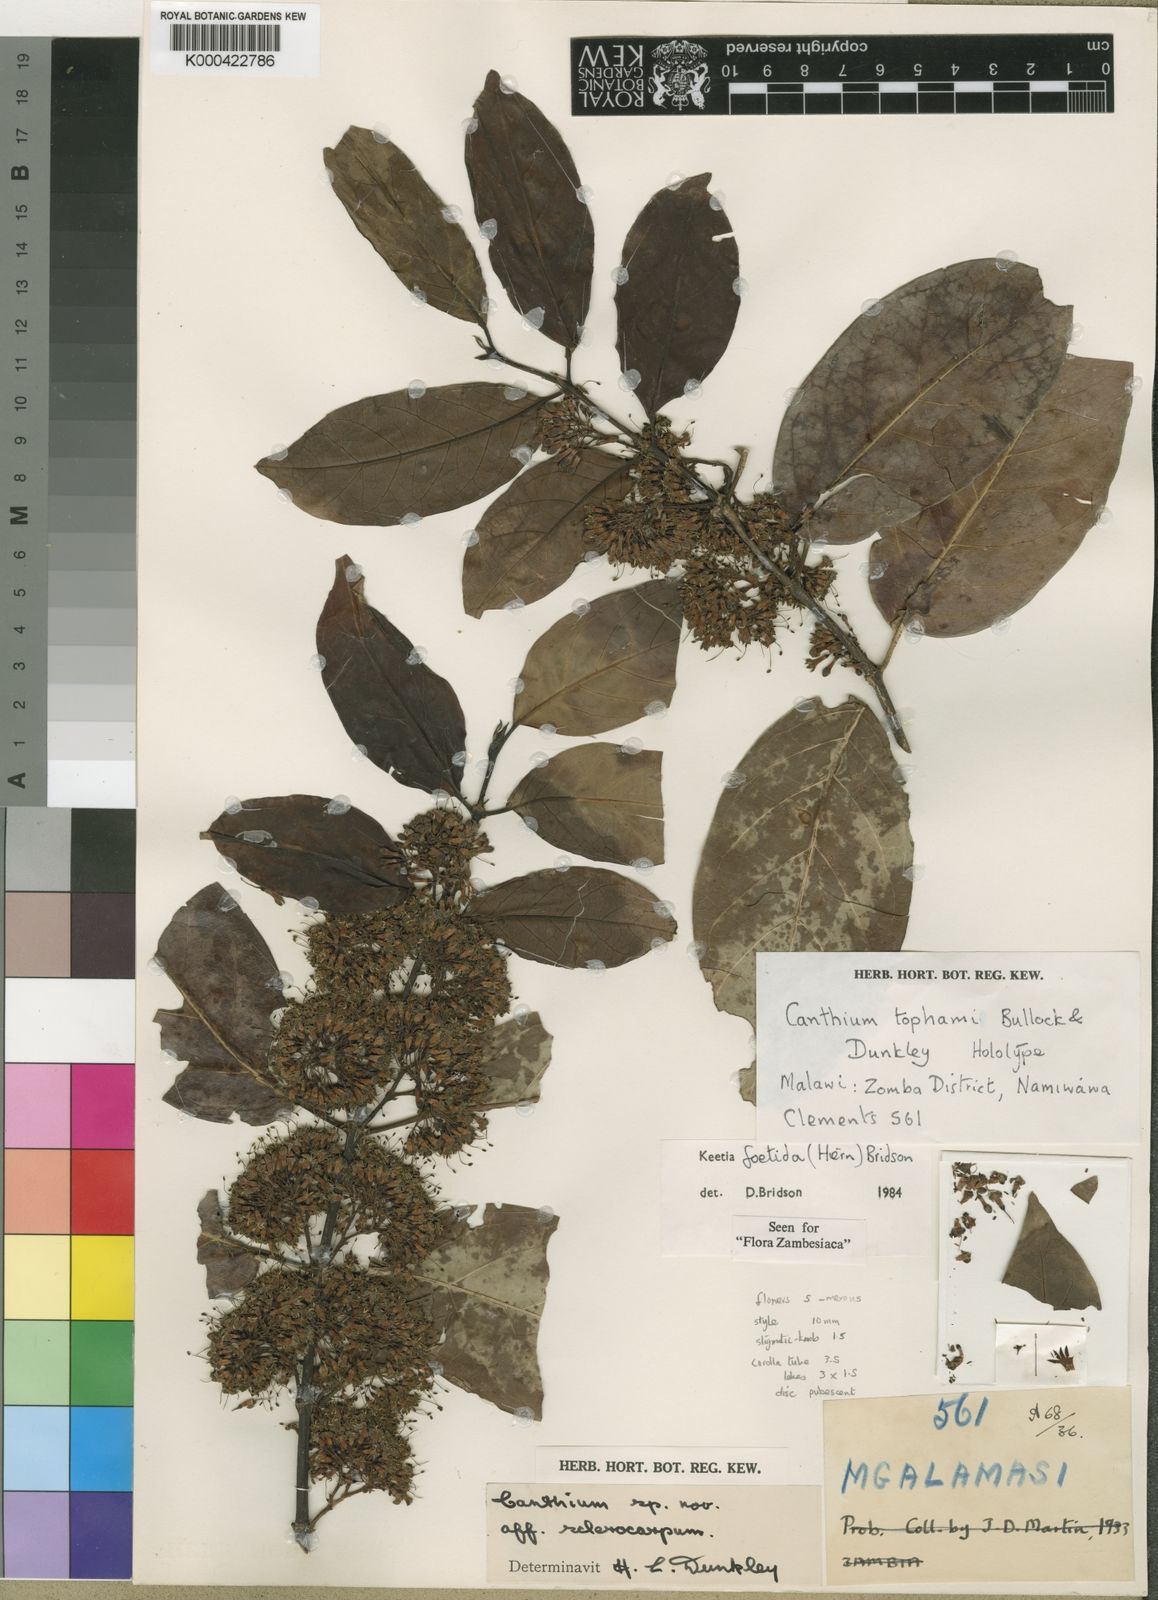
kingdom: Plantae
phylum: Tracheophyta
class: Magnoliopsida
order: Gentianales
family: Rubiaceae
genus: Keetia
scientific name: Keetia foetida
